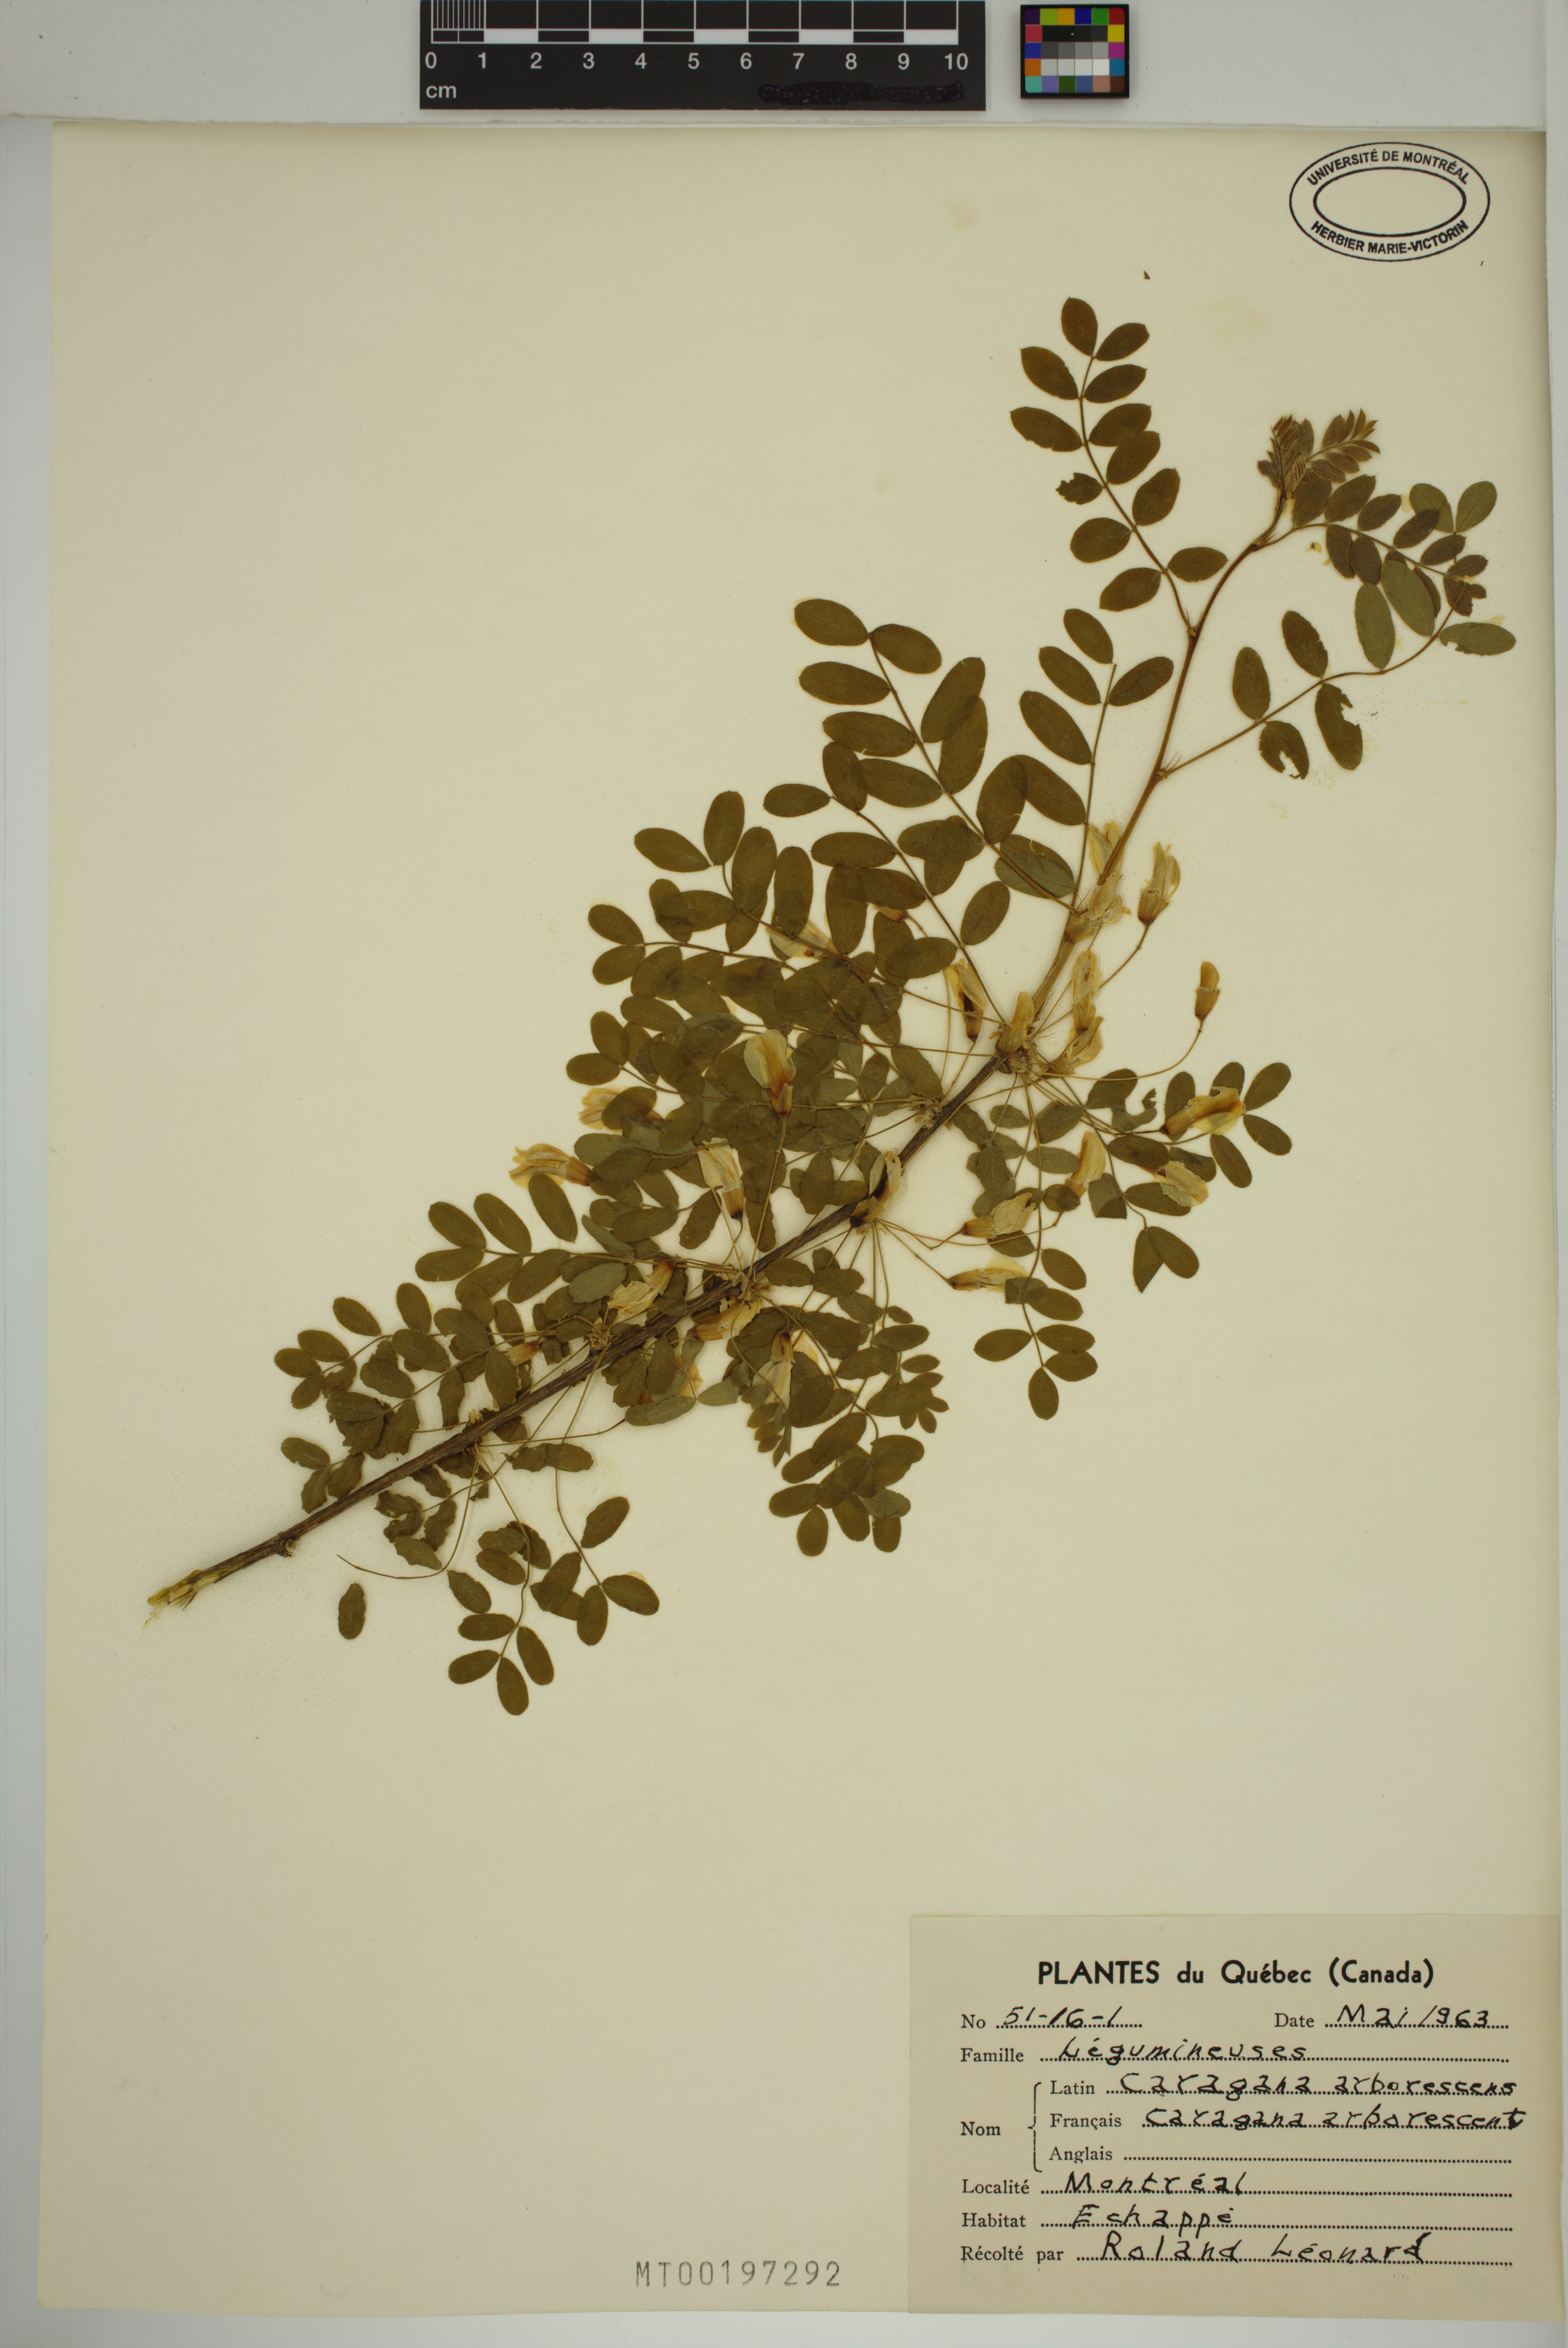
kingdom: Plantae
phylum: Tracheophyta
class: Magnoliopsida
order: Fabales
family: Fabaceae
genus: Caragana
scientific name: Caragana arborescens
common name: Siberian peashrub
